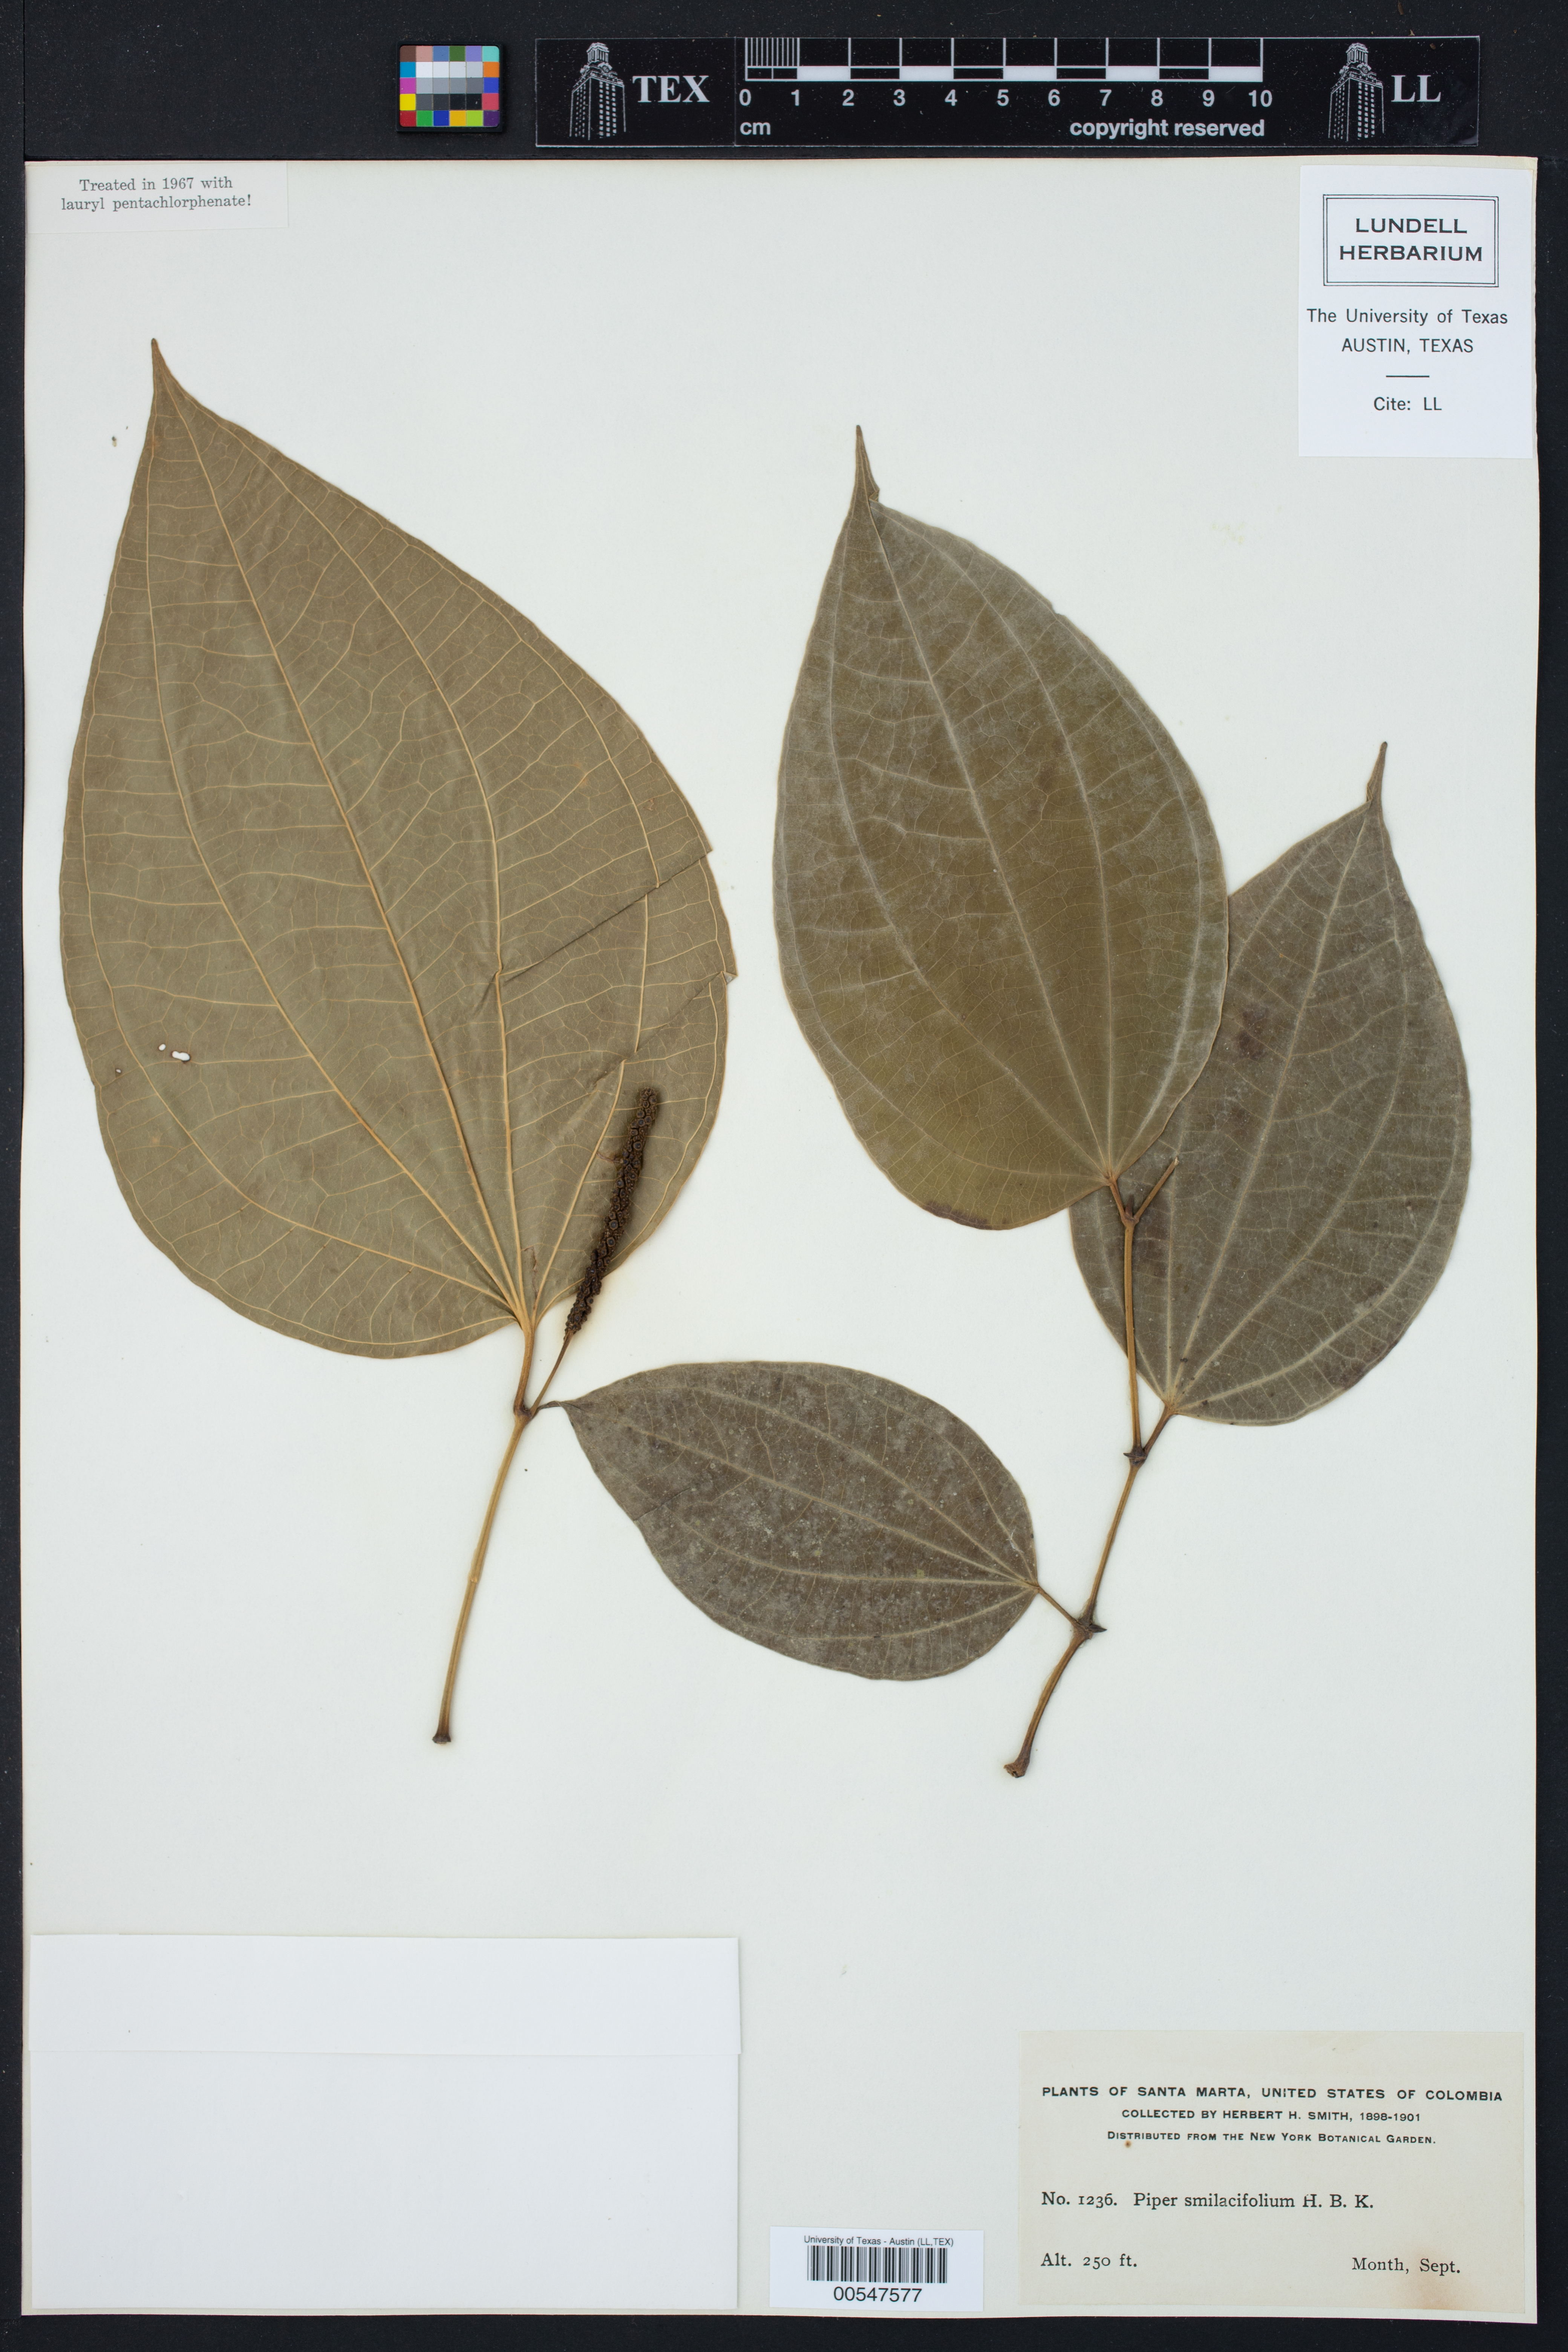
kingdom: Plantae
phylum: Tracheophyta
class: Magnoliopsida
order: Piperales
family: Piperaceae
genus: Piper
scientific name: Piper laevigatum
